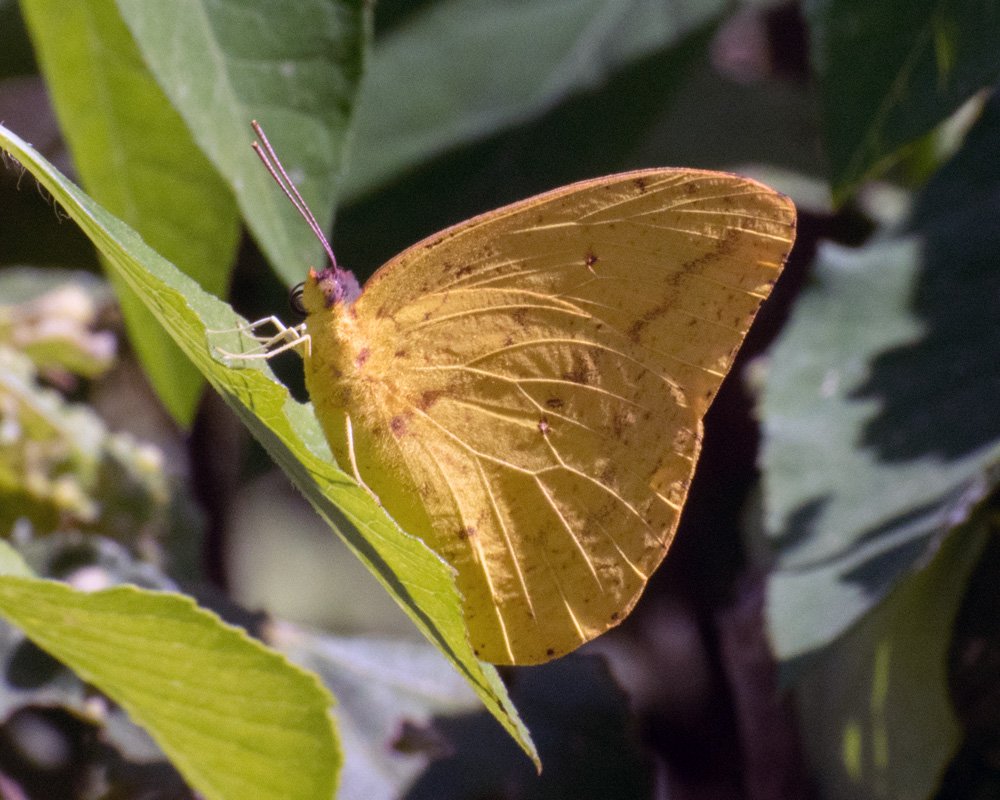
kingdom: Animalia
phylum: Arthropoda
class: Insecta
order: Lepidoptera
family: Pieridae
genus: Phoebis
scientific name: Phoebis agarithe
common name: Large Orange Sulphur
